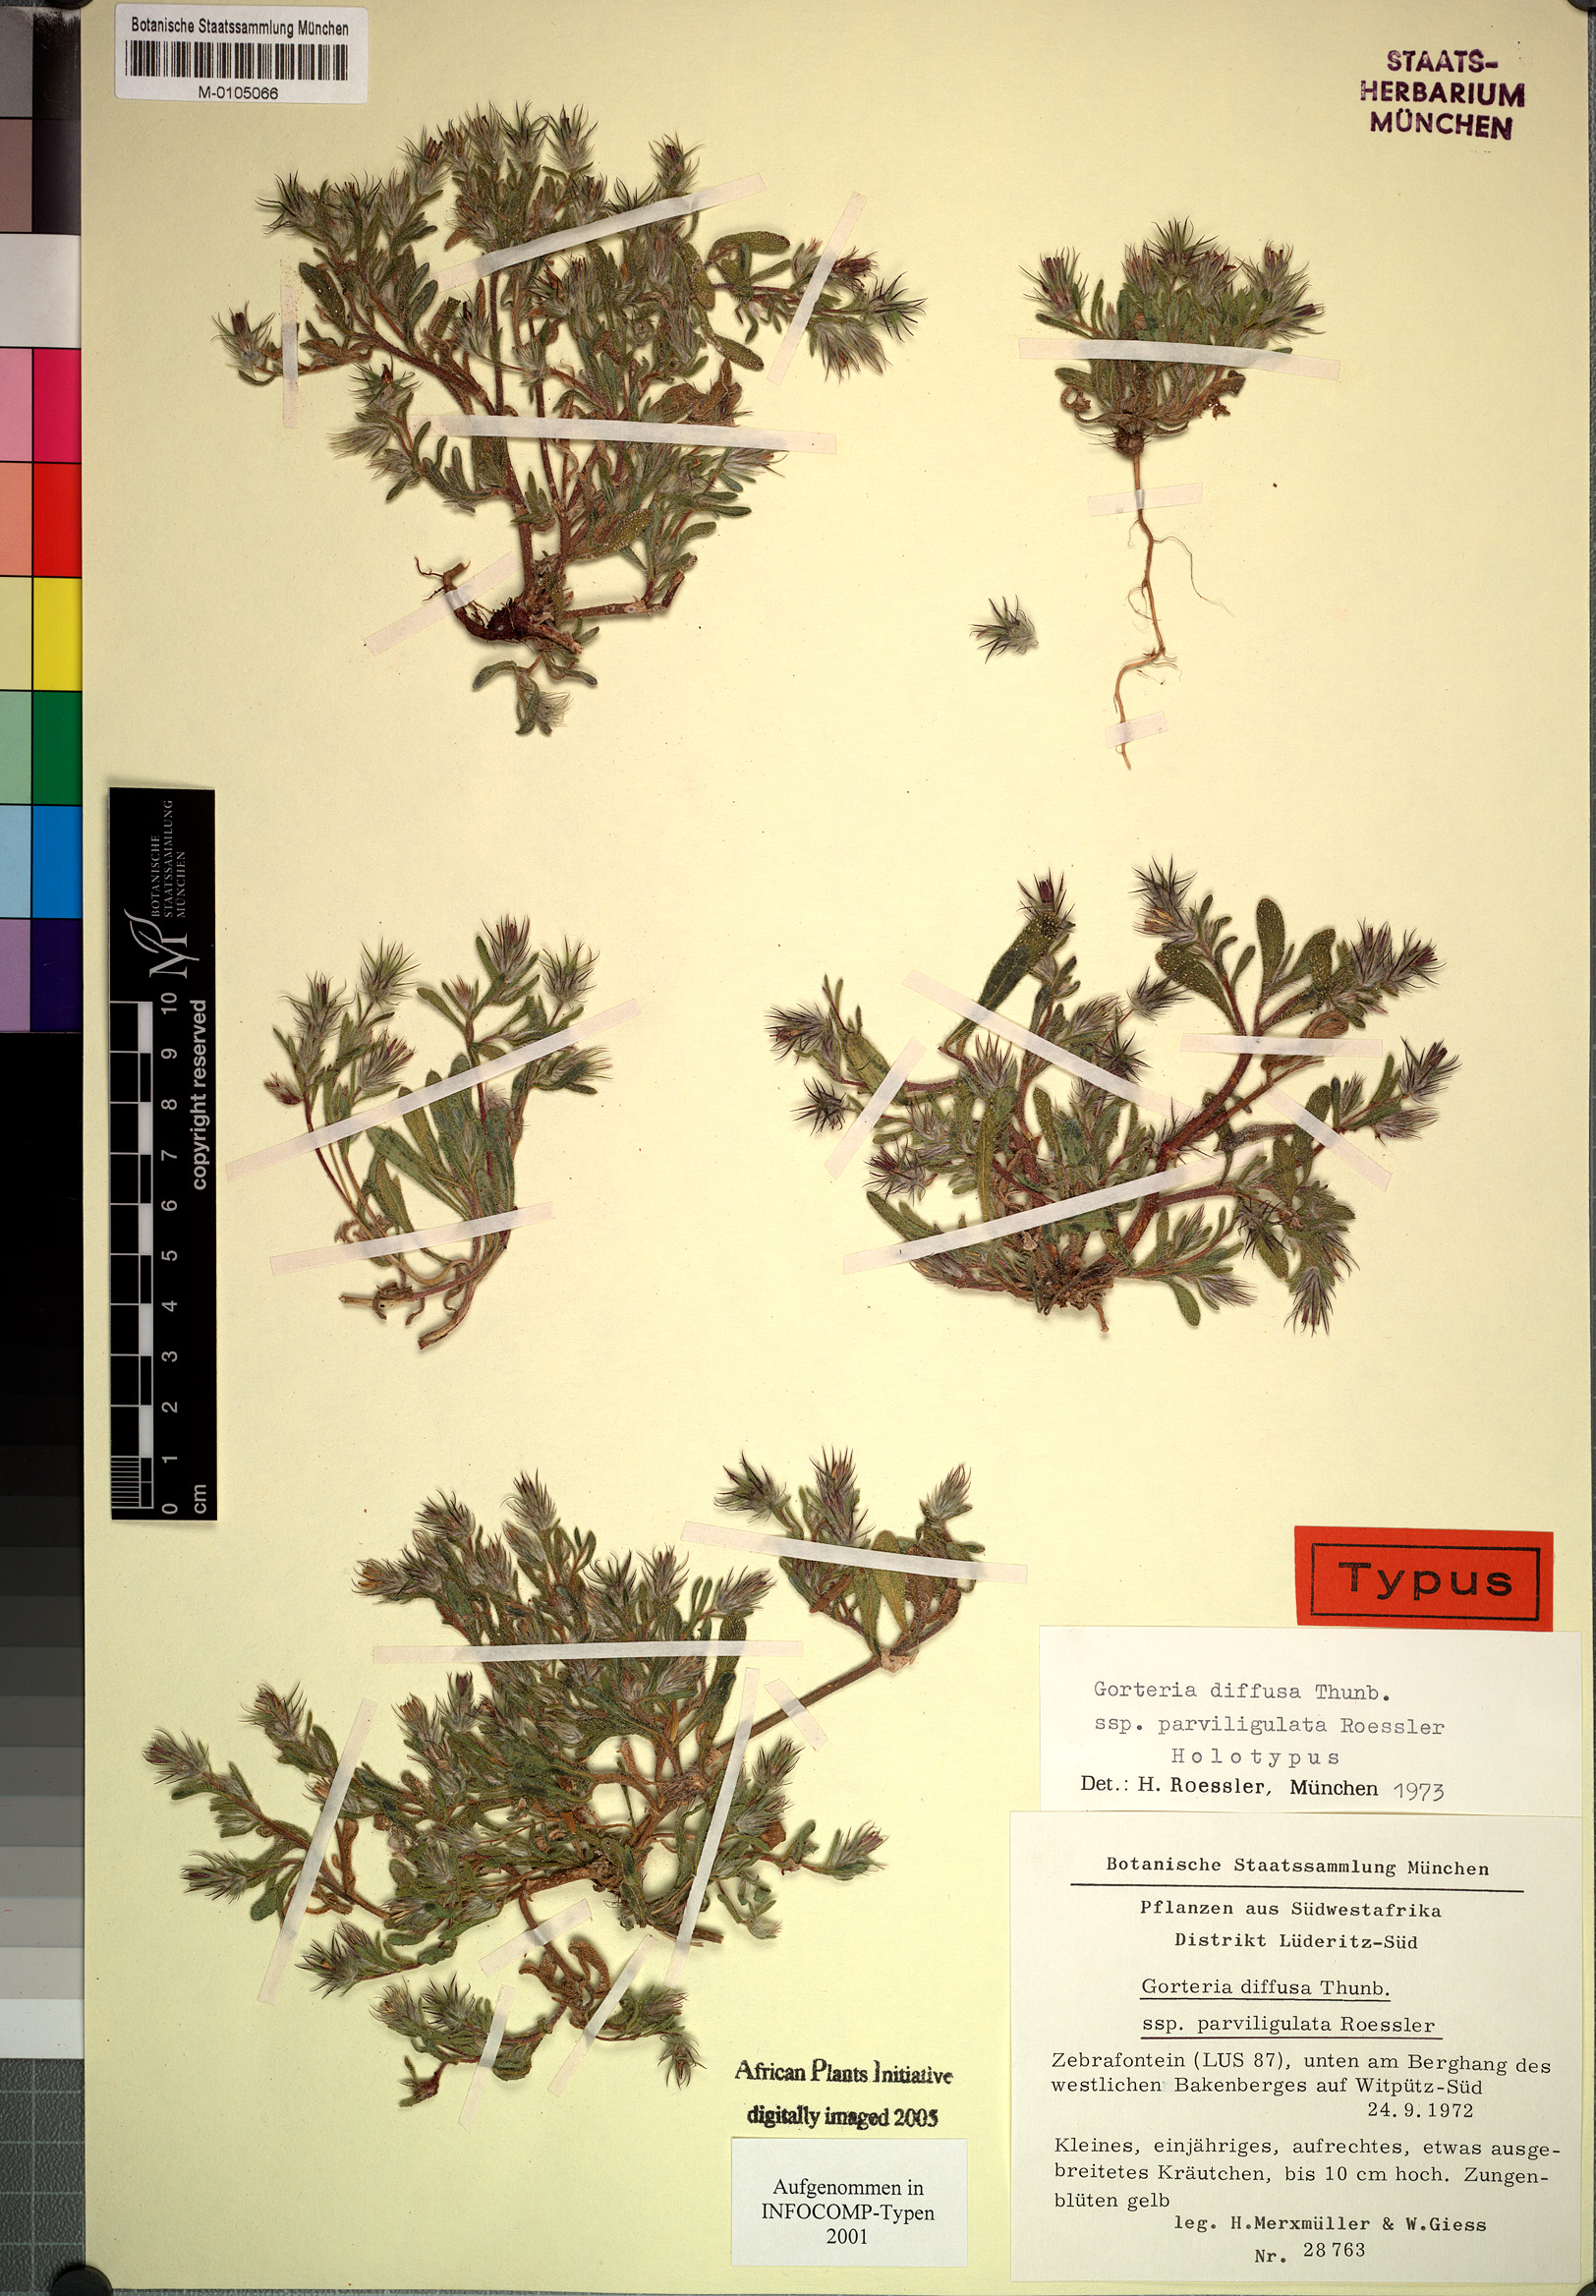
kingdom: Plantae
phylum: Tracheophyta
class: Magnoliopsida
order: Asterales
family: Asteraceae
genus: Gorteria
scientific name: Gorteria parviligulata
